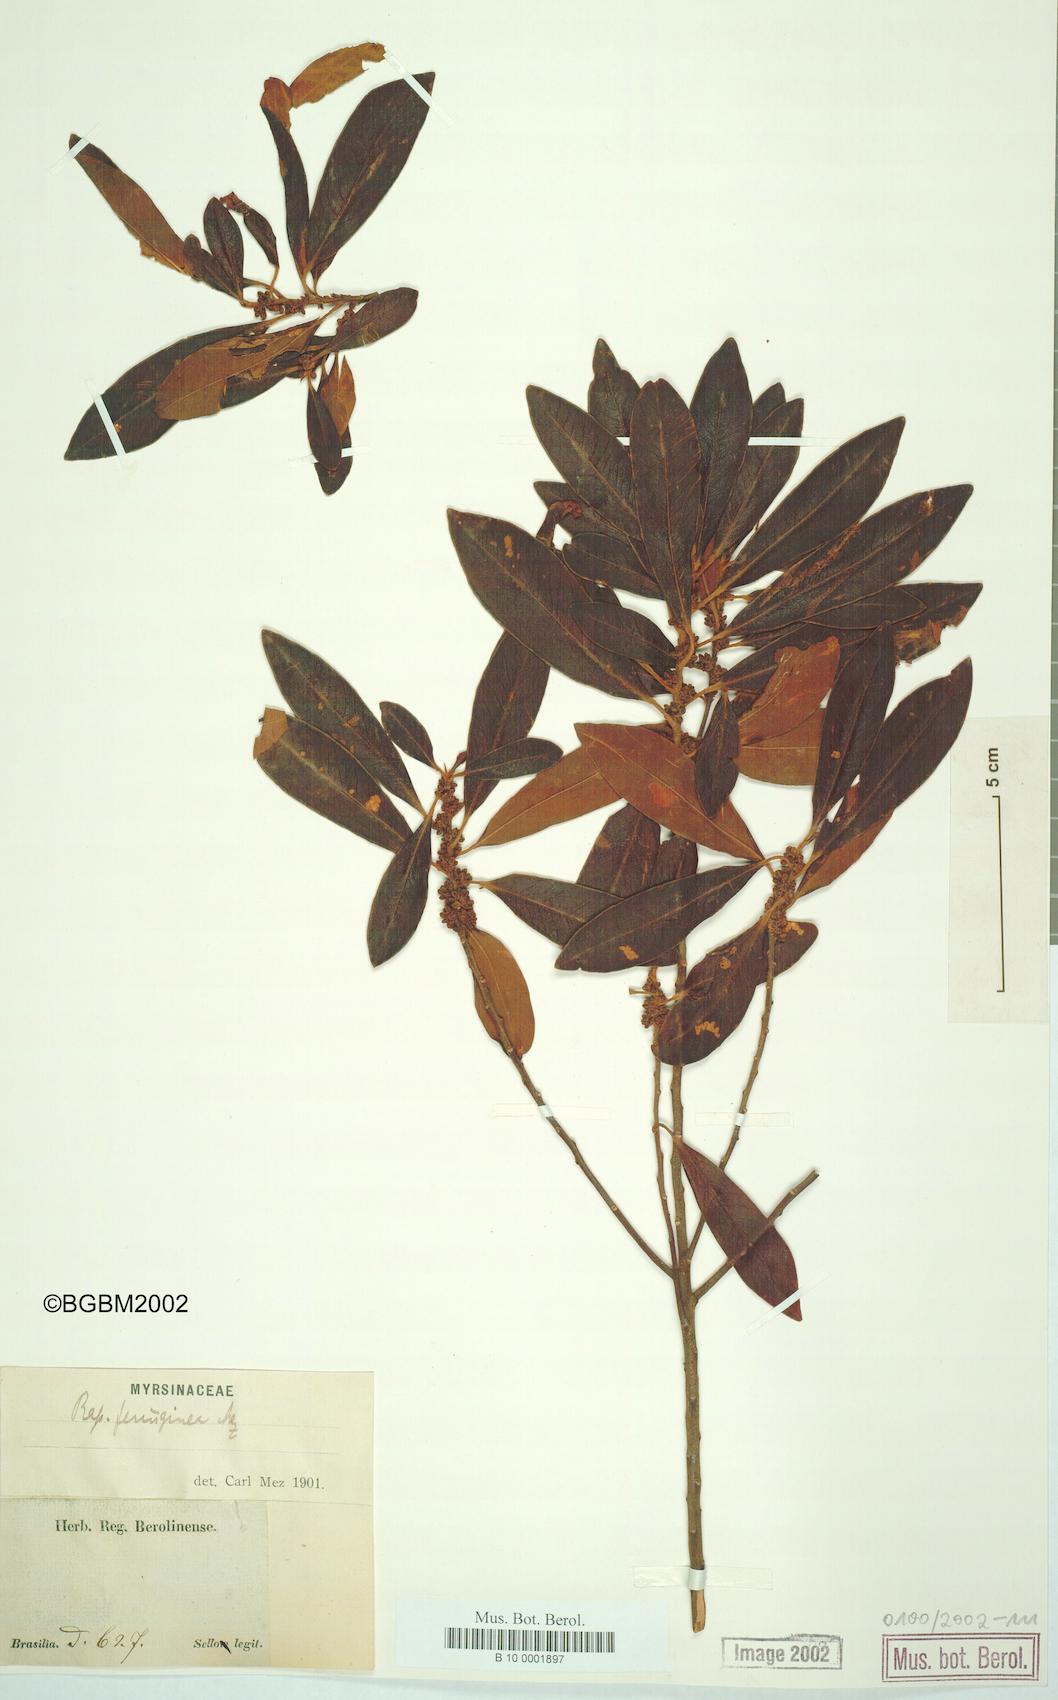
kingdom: Plantae
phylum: Tracheophyta
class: Magnoliopsida
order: Ericales
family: Primulaceae
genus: Myrsine
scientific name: Myrsine coriacea
